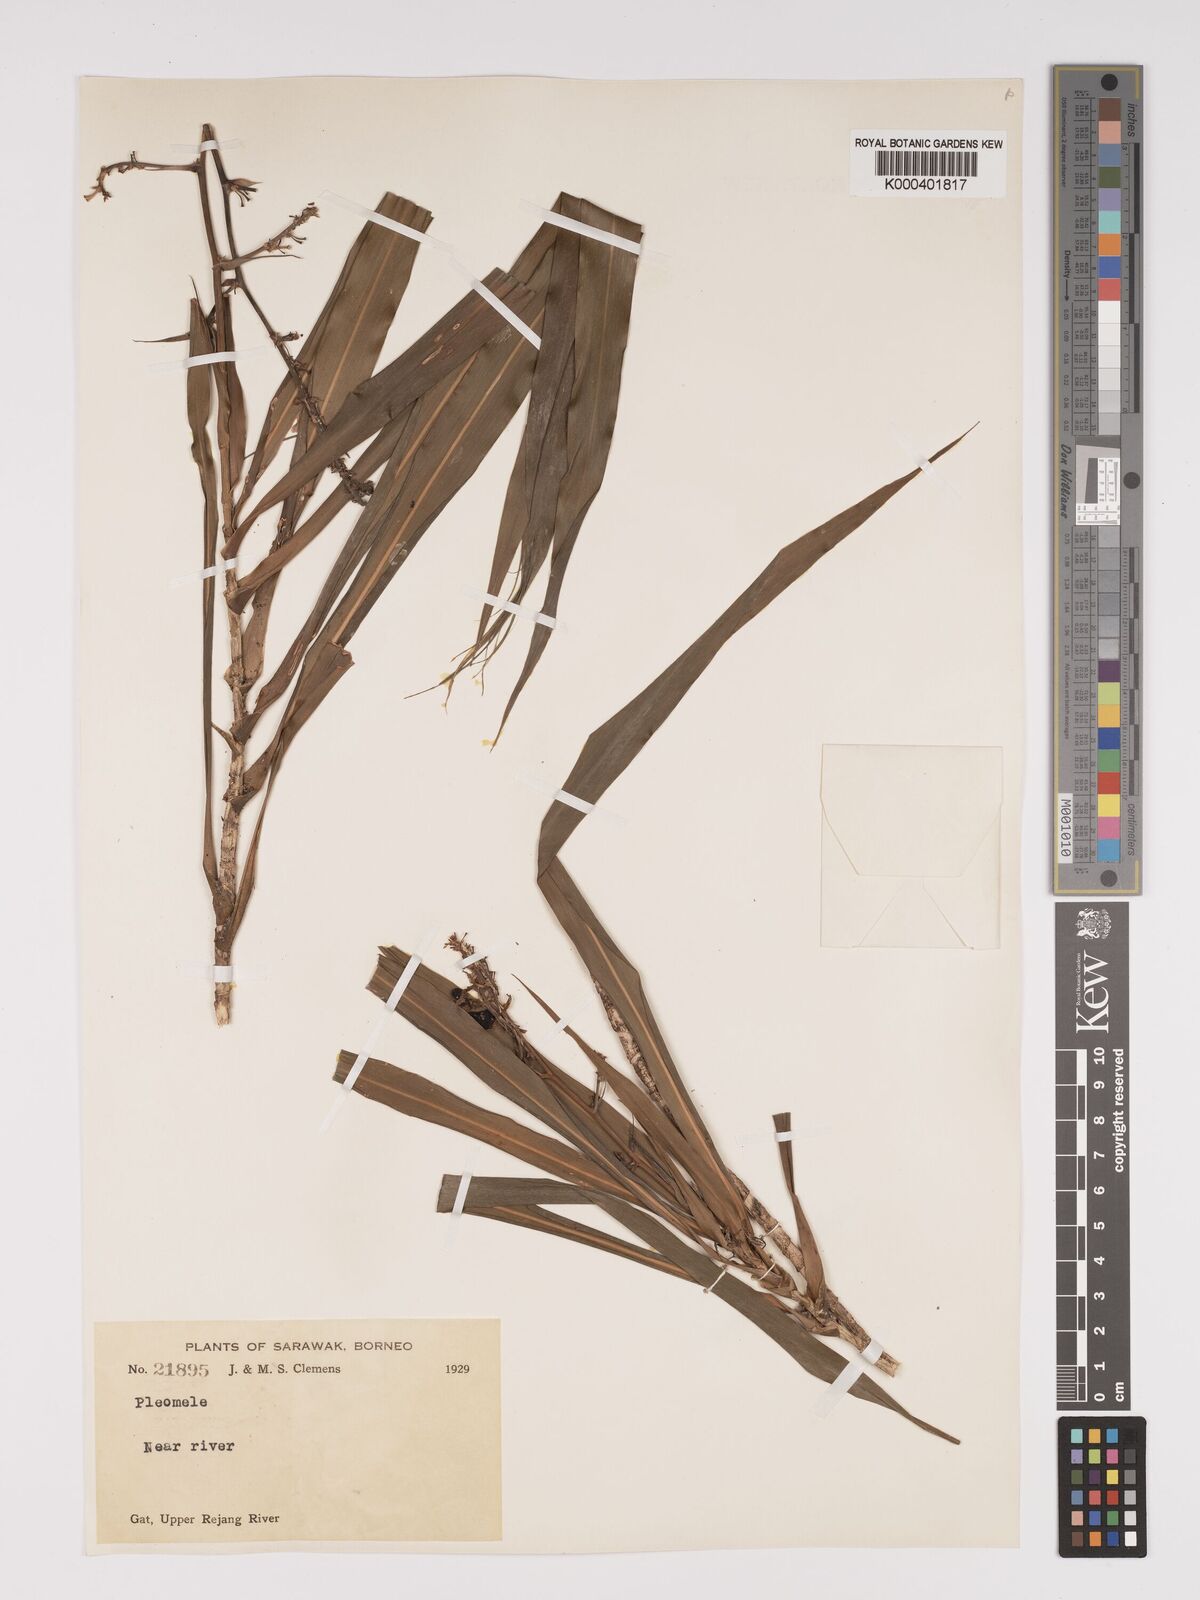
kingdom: Plantae
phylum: Tracheophyta
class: Liliopsida
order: Asparagales
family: Asparagaceae
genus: Dracaena
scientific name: Dracaena
